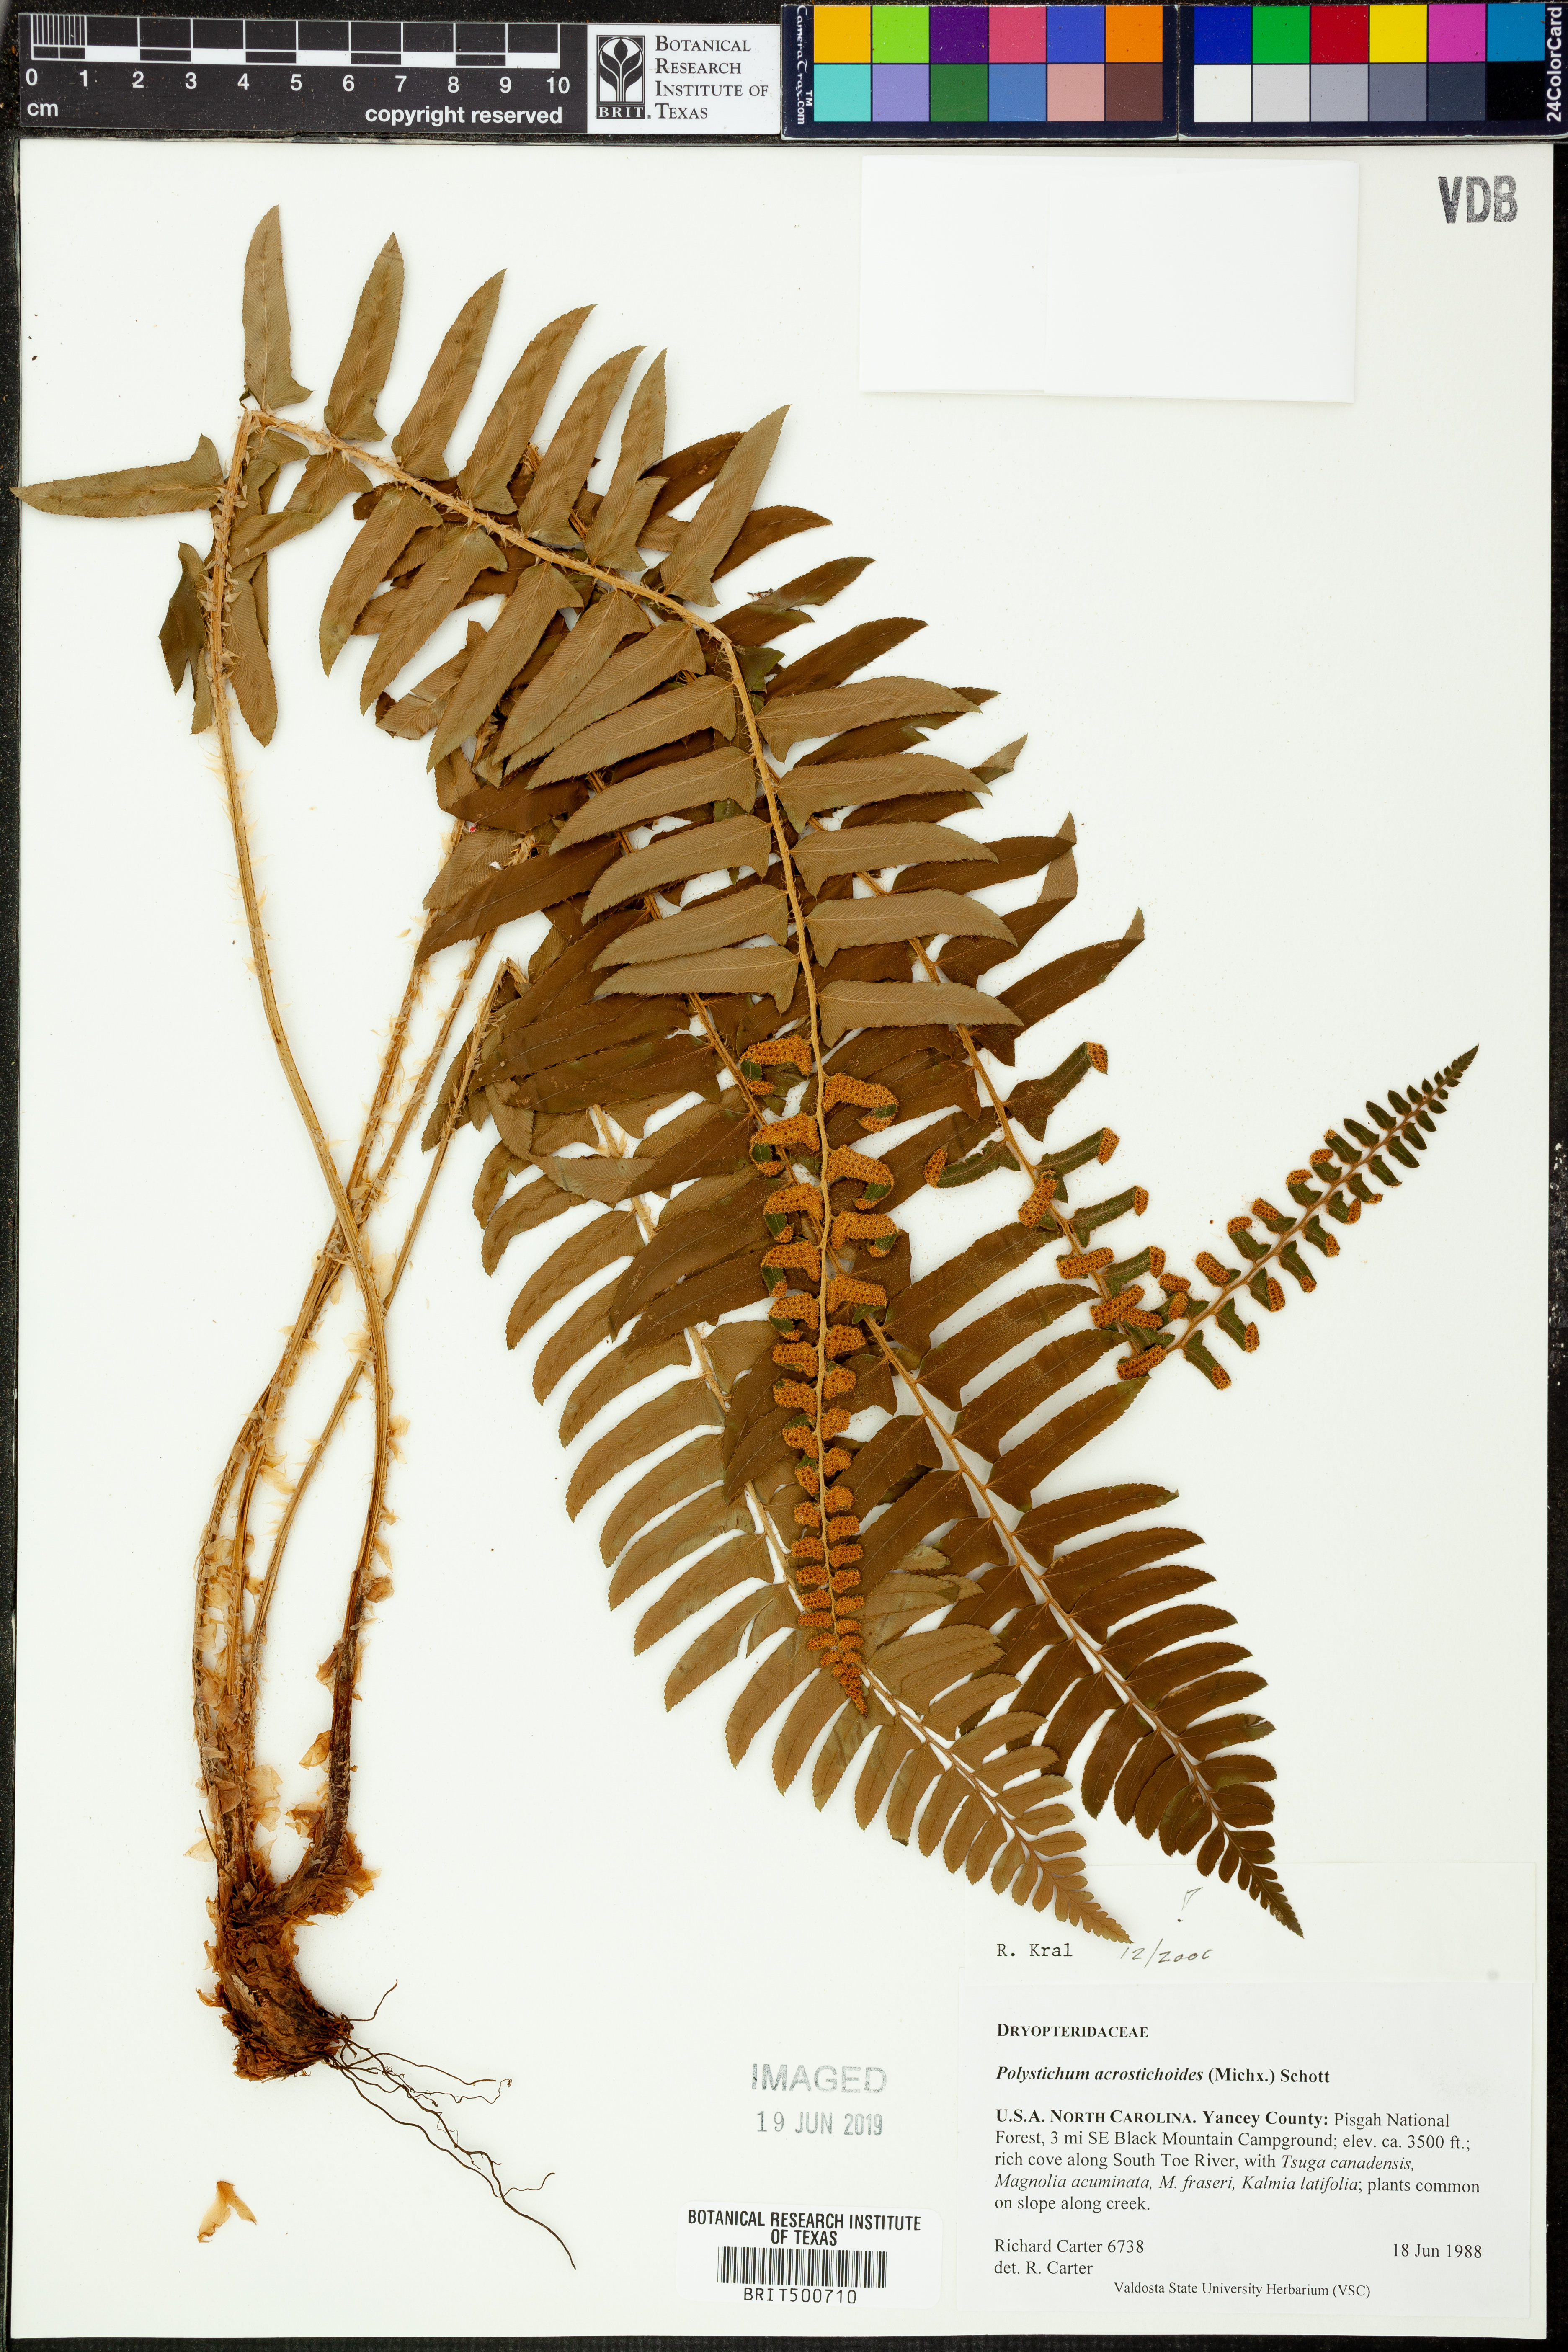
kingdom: Plantae
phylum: Tracheophyta
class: Polypodiopsida
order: Polypodiales
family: Dryopteridaceae
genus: Polystichum
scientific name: Polystichum acrostichoides
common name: Christmas fern
